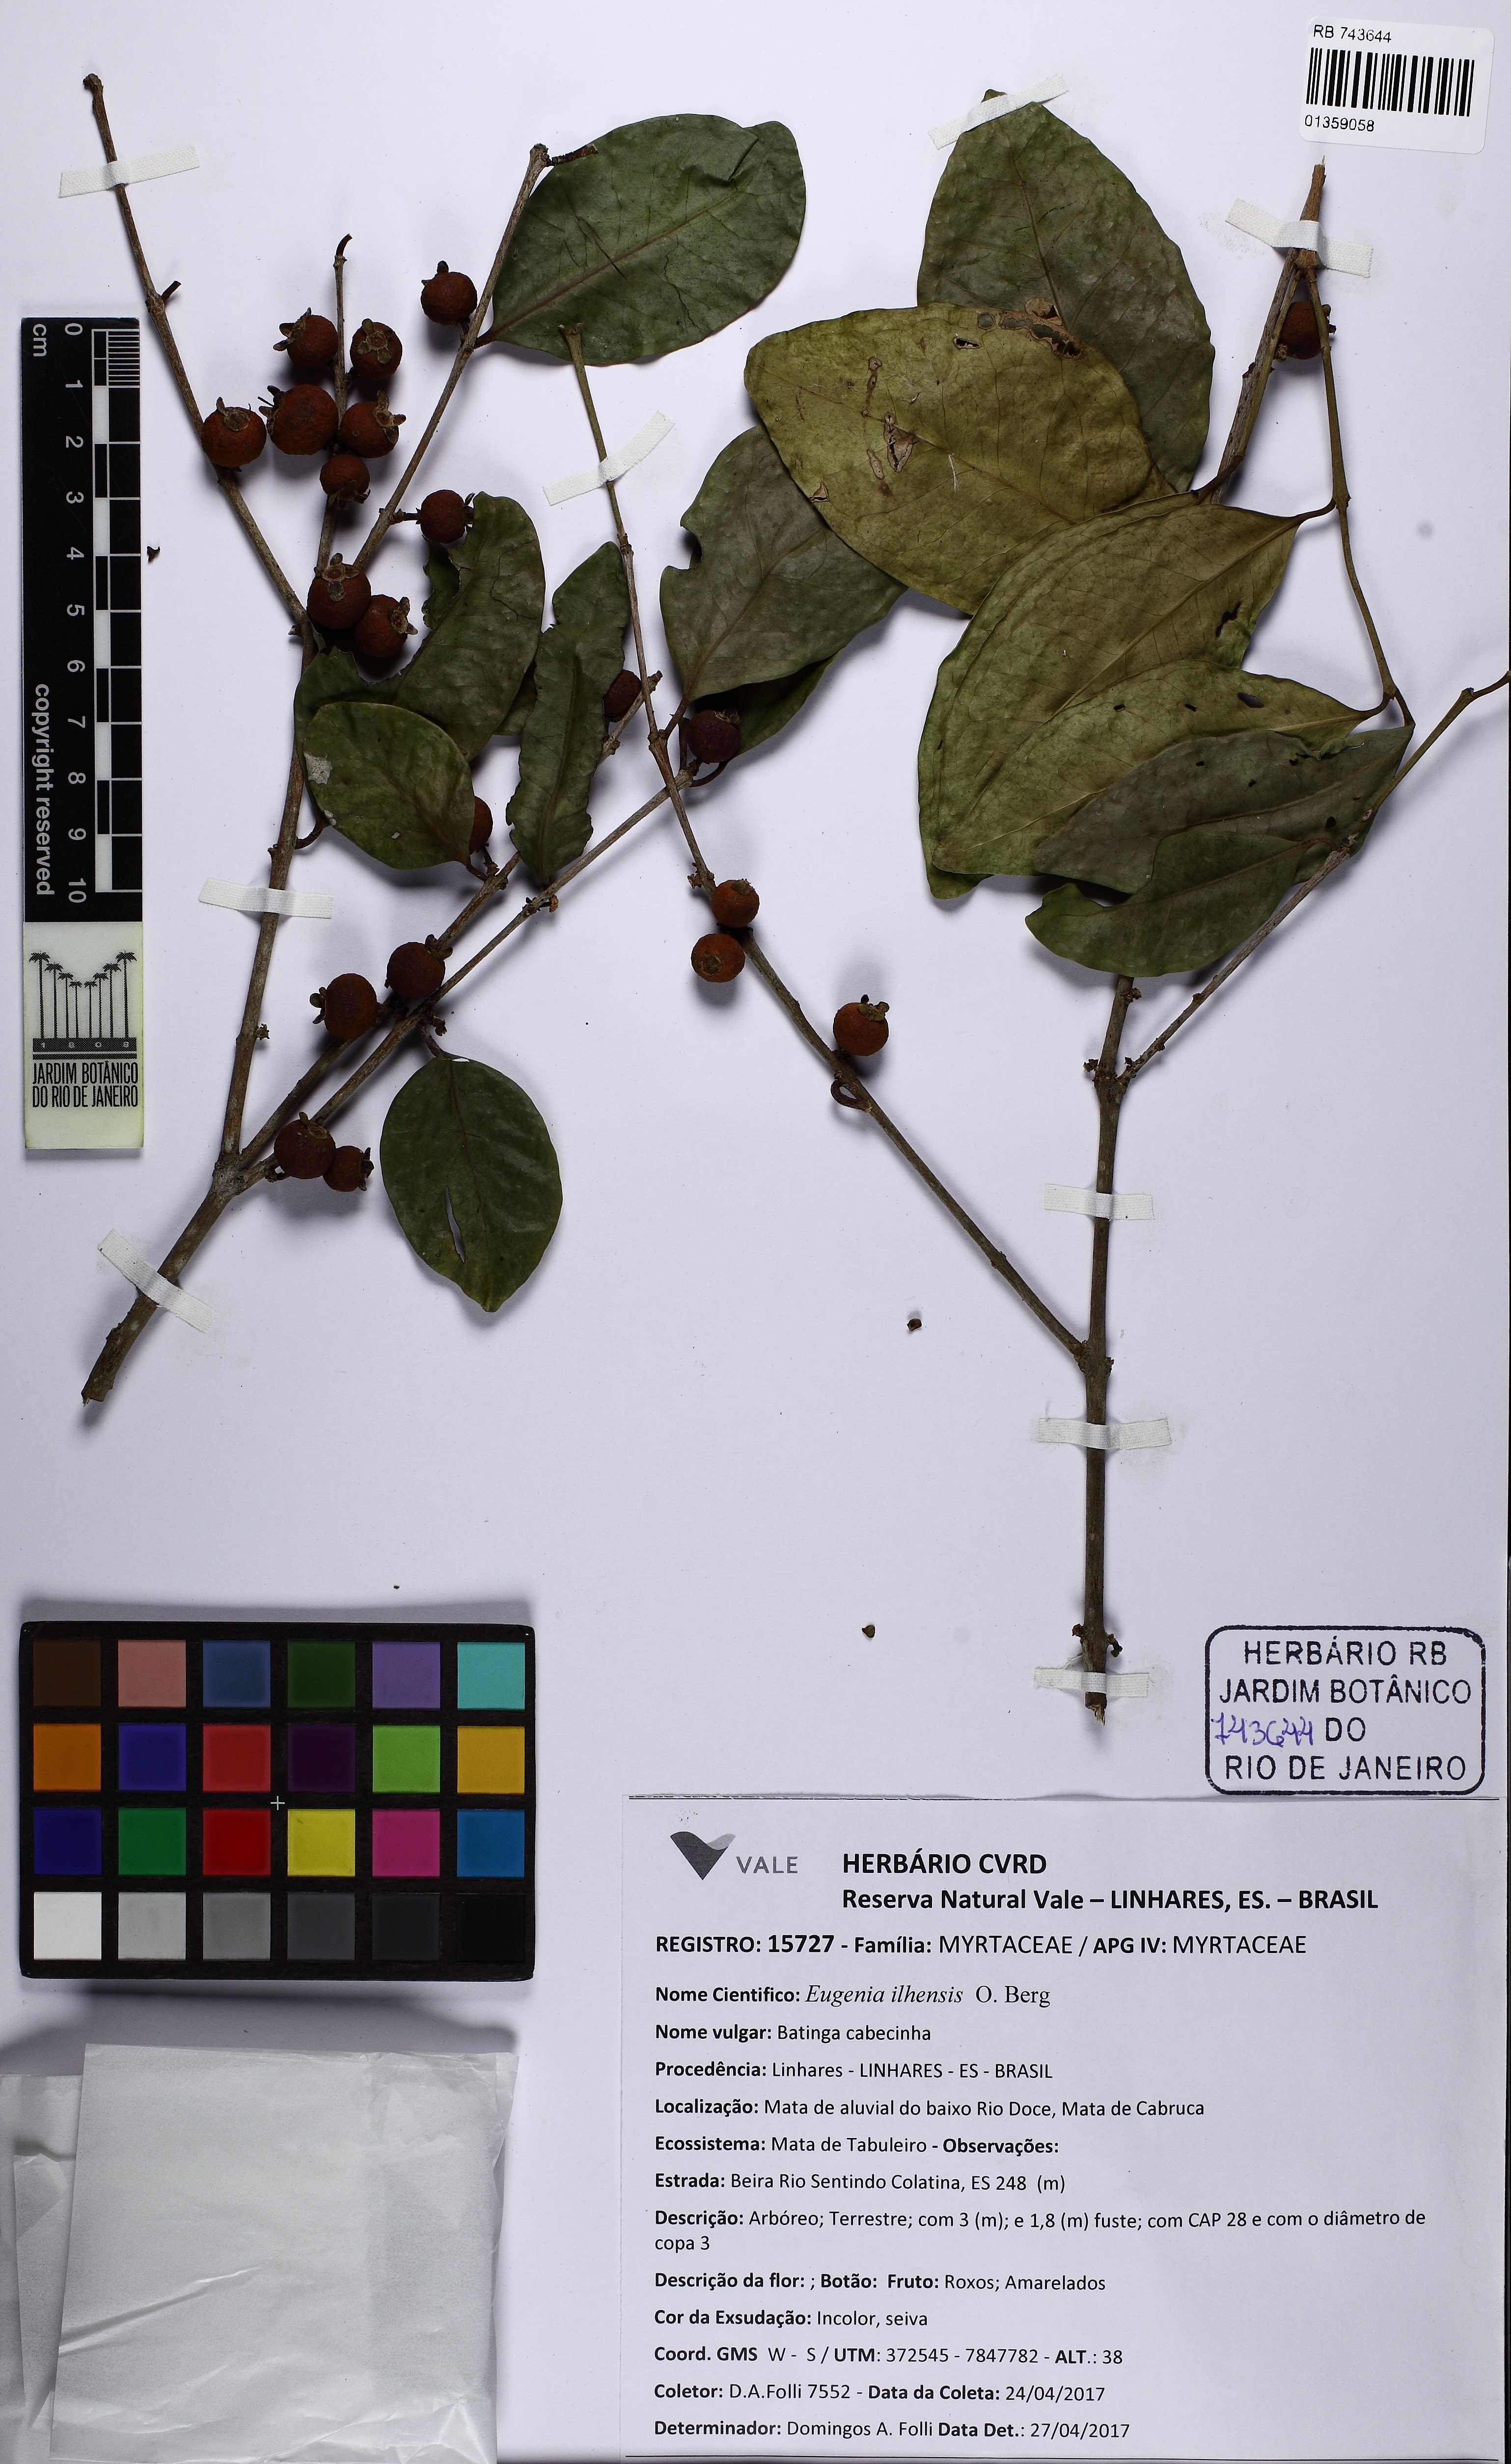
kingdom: Plantae
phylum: Tracheophyta
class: Magnoliopsida
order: Myrtales
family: Myrtaceae
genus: Eugenia
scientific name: Eugenia acapulcensis
